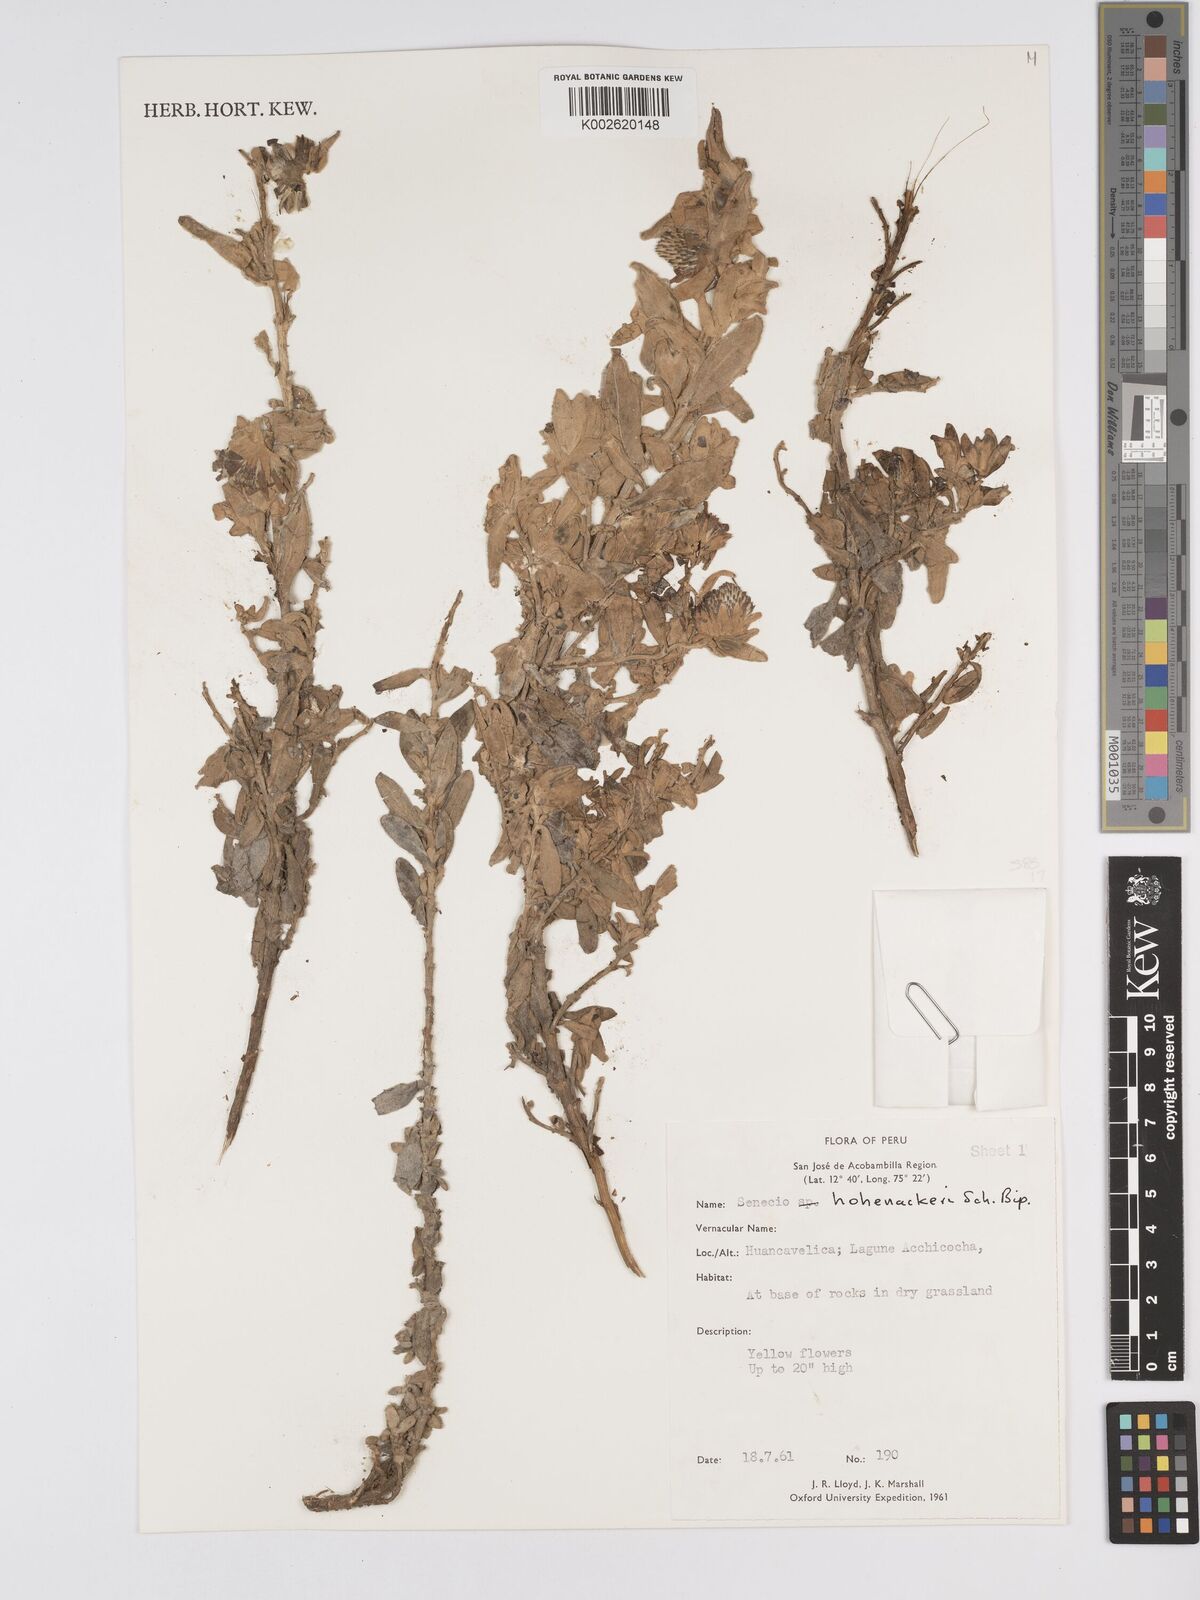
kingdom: Plantae
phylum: Tracheophyta
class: Magnoliopsida
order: Asterales
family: Asteraceae
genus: Senecio
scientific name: Senecio hohenackeri
